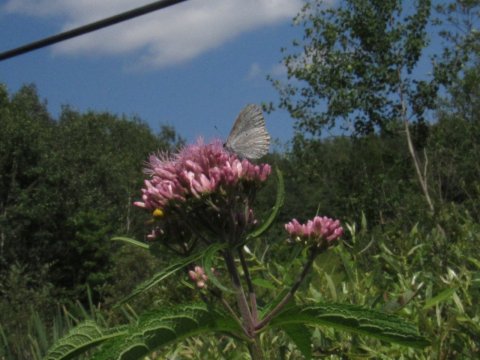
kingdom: Animalia
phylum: Arthropoda
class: Insecta
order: Lepidoptera
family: Lycaenidae
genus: Cyaniris
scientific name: Cyaniris neglecta
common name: Summer Azure
